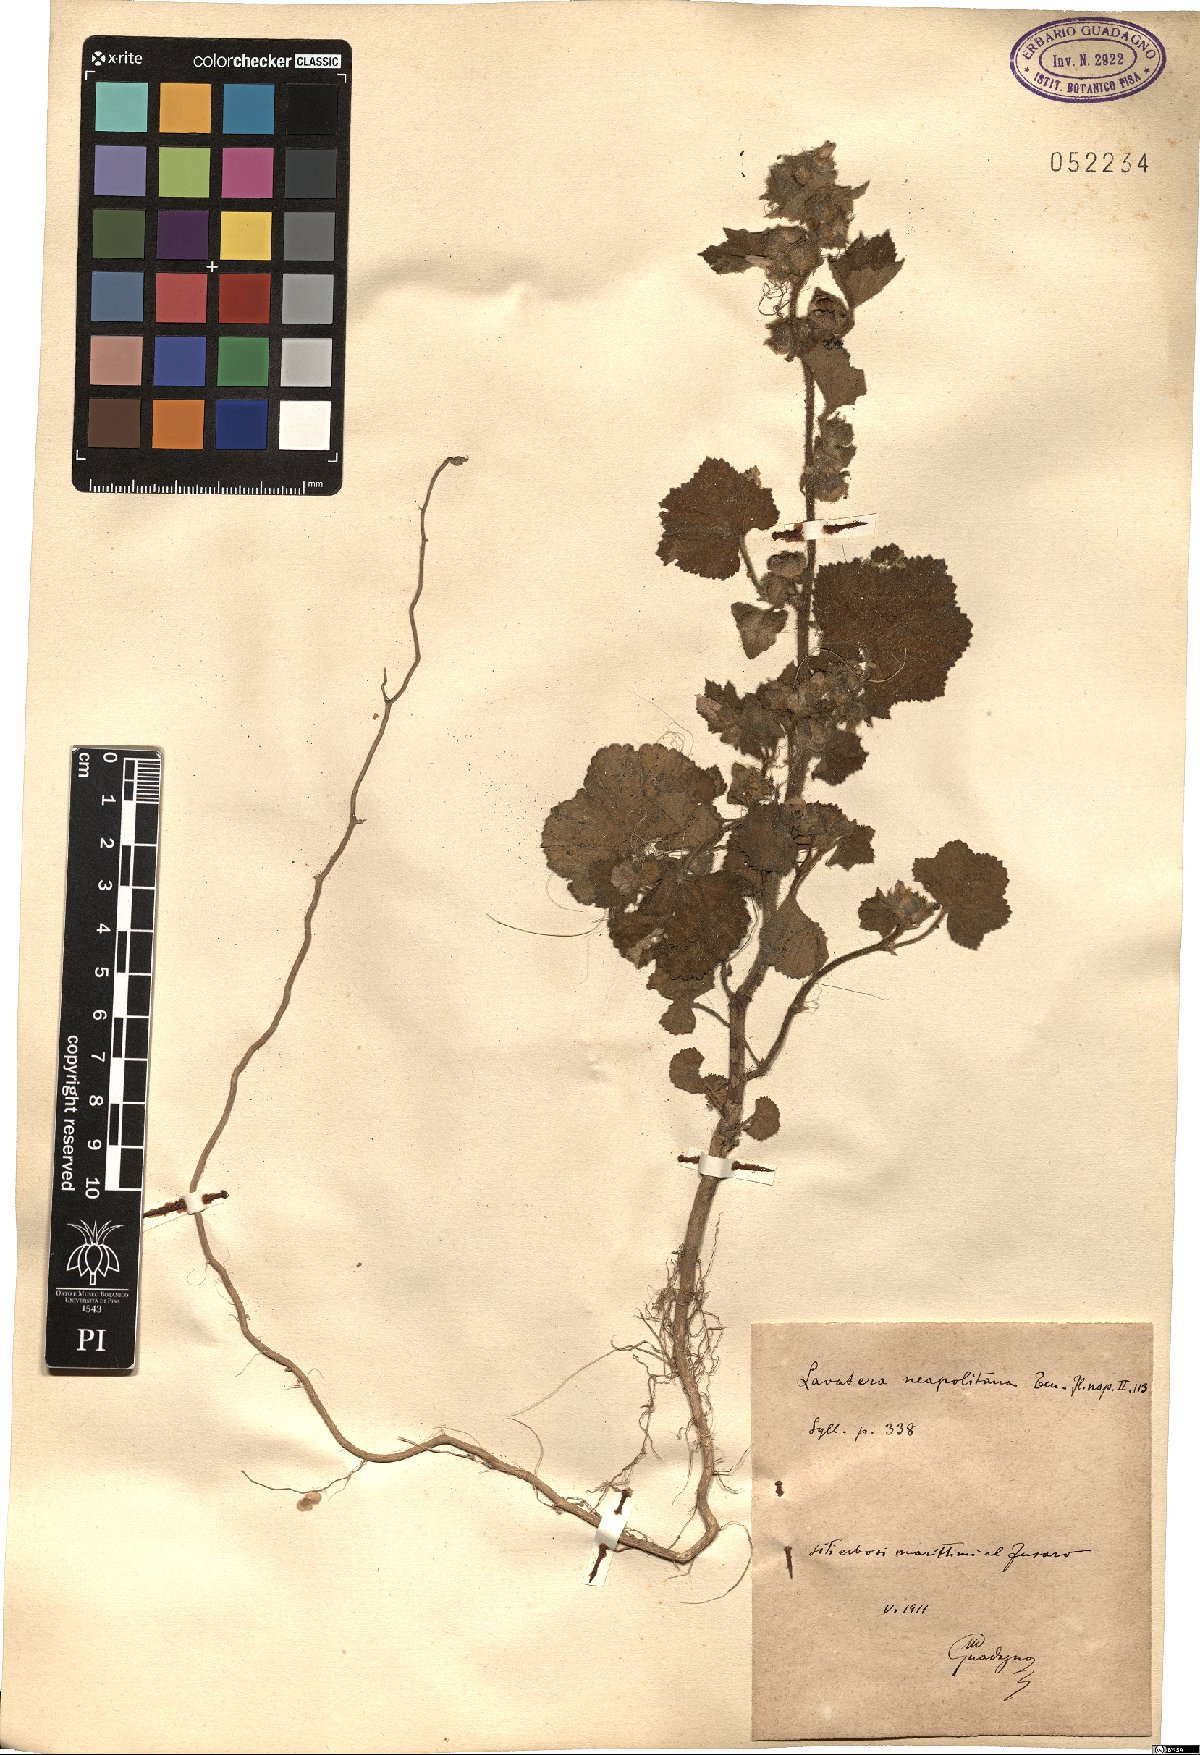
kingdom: Plantae
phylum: Tracheophyta
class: Magnoliopsida
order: Malvales
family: Malvaceae
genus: Malva
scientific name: Malva multiflora
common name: Cheeseweed
